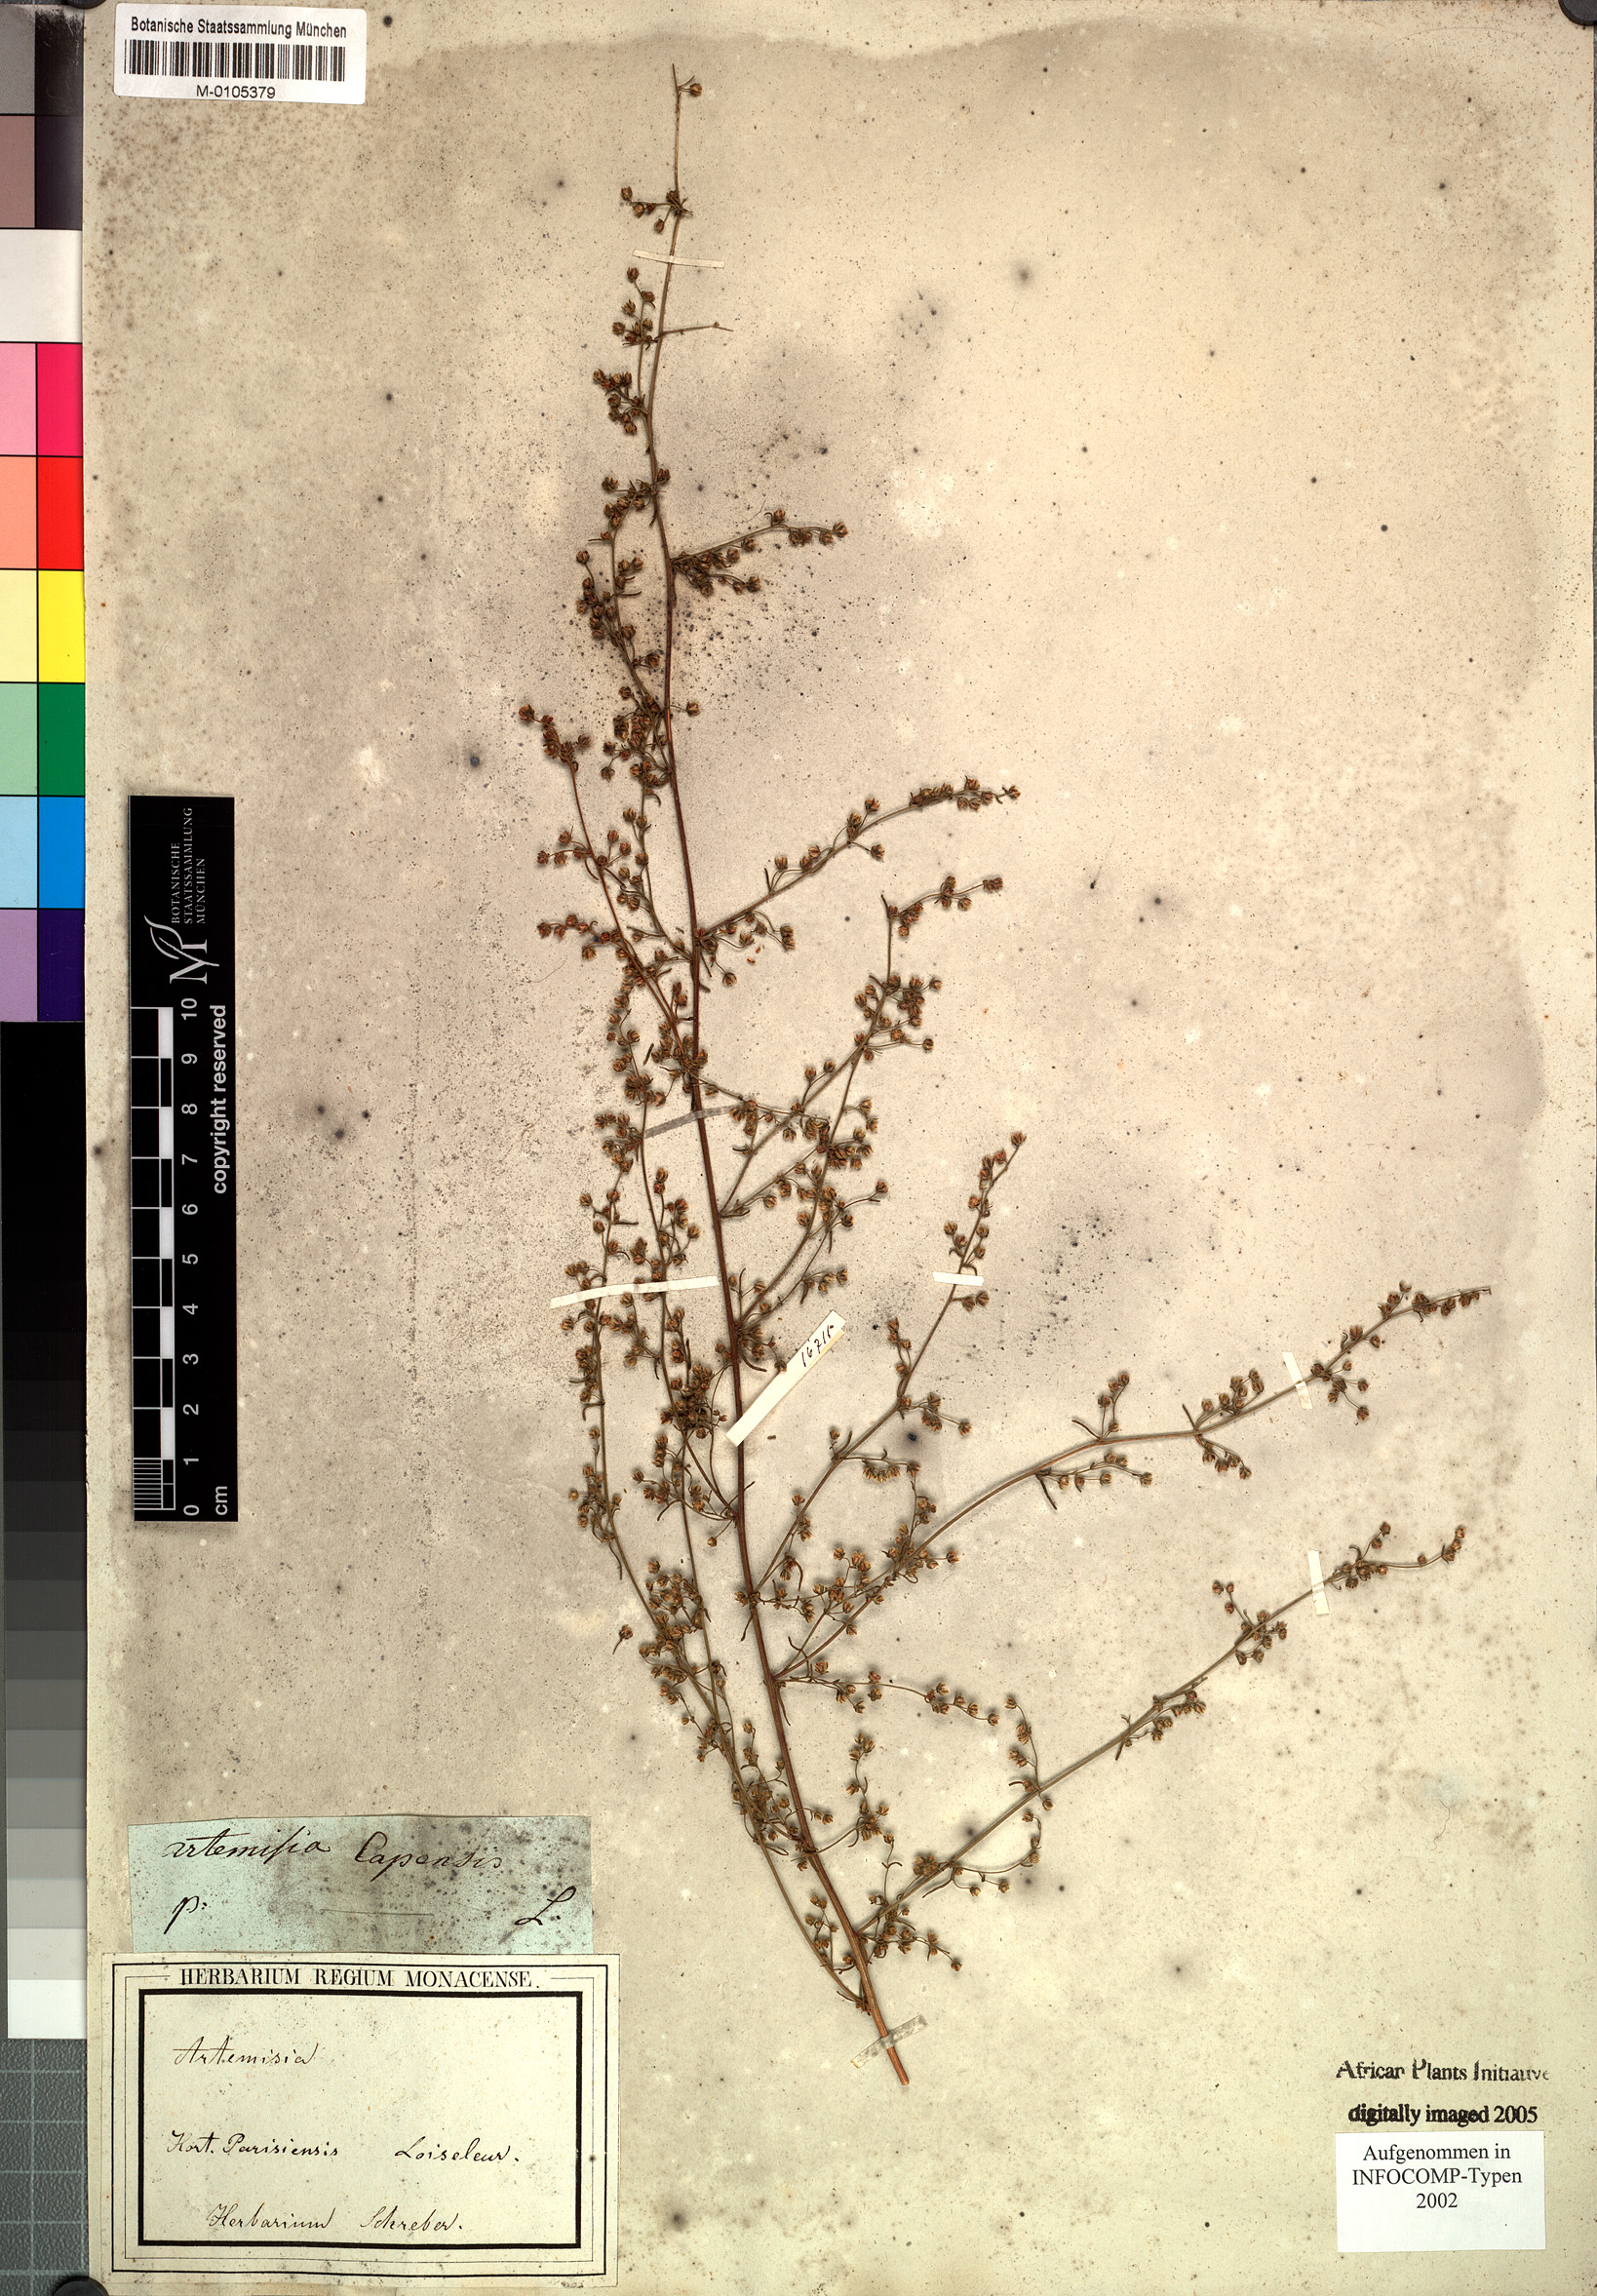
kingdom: Plantae
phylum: Tracheophyta
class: Magnoliopsida
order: Asterales
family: Asteraceae
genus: Artemisia
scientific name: Artemisia
